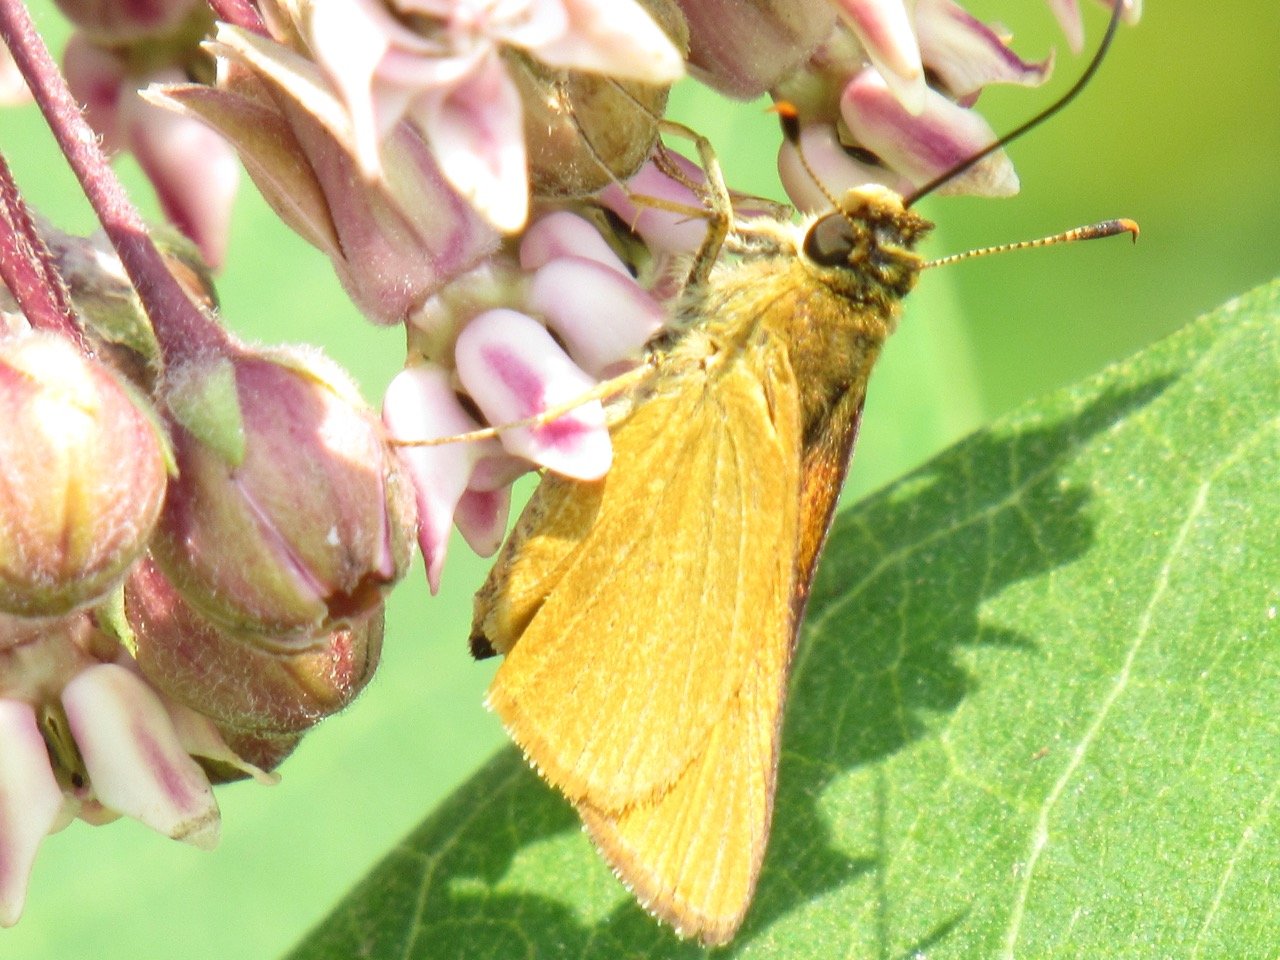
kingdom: Animalia
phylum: Arthropoda
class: Insecta
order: Lepidoptera
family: Hesperiidae
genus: Atrytone
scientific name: Atrytone delaware
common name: Delaware Skipper
